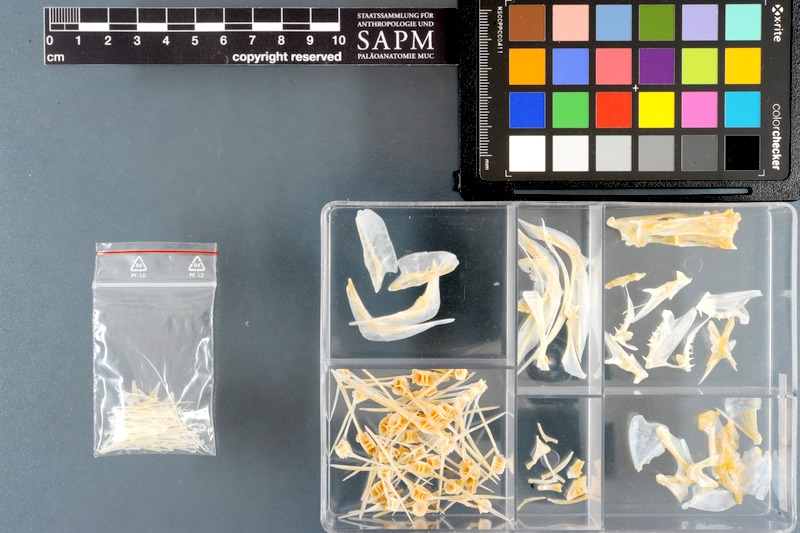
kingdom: Animalia
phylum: Chordata
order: Pleuronectiformes
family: Paralichthyidae
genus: Pseudorhombus
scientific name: Pseudorhombus arsius
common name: Largetooth flounder
